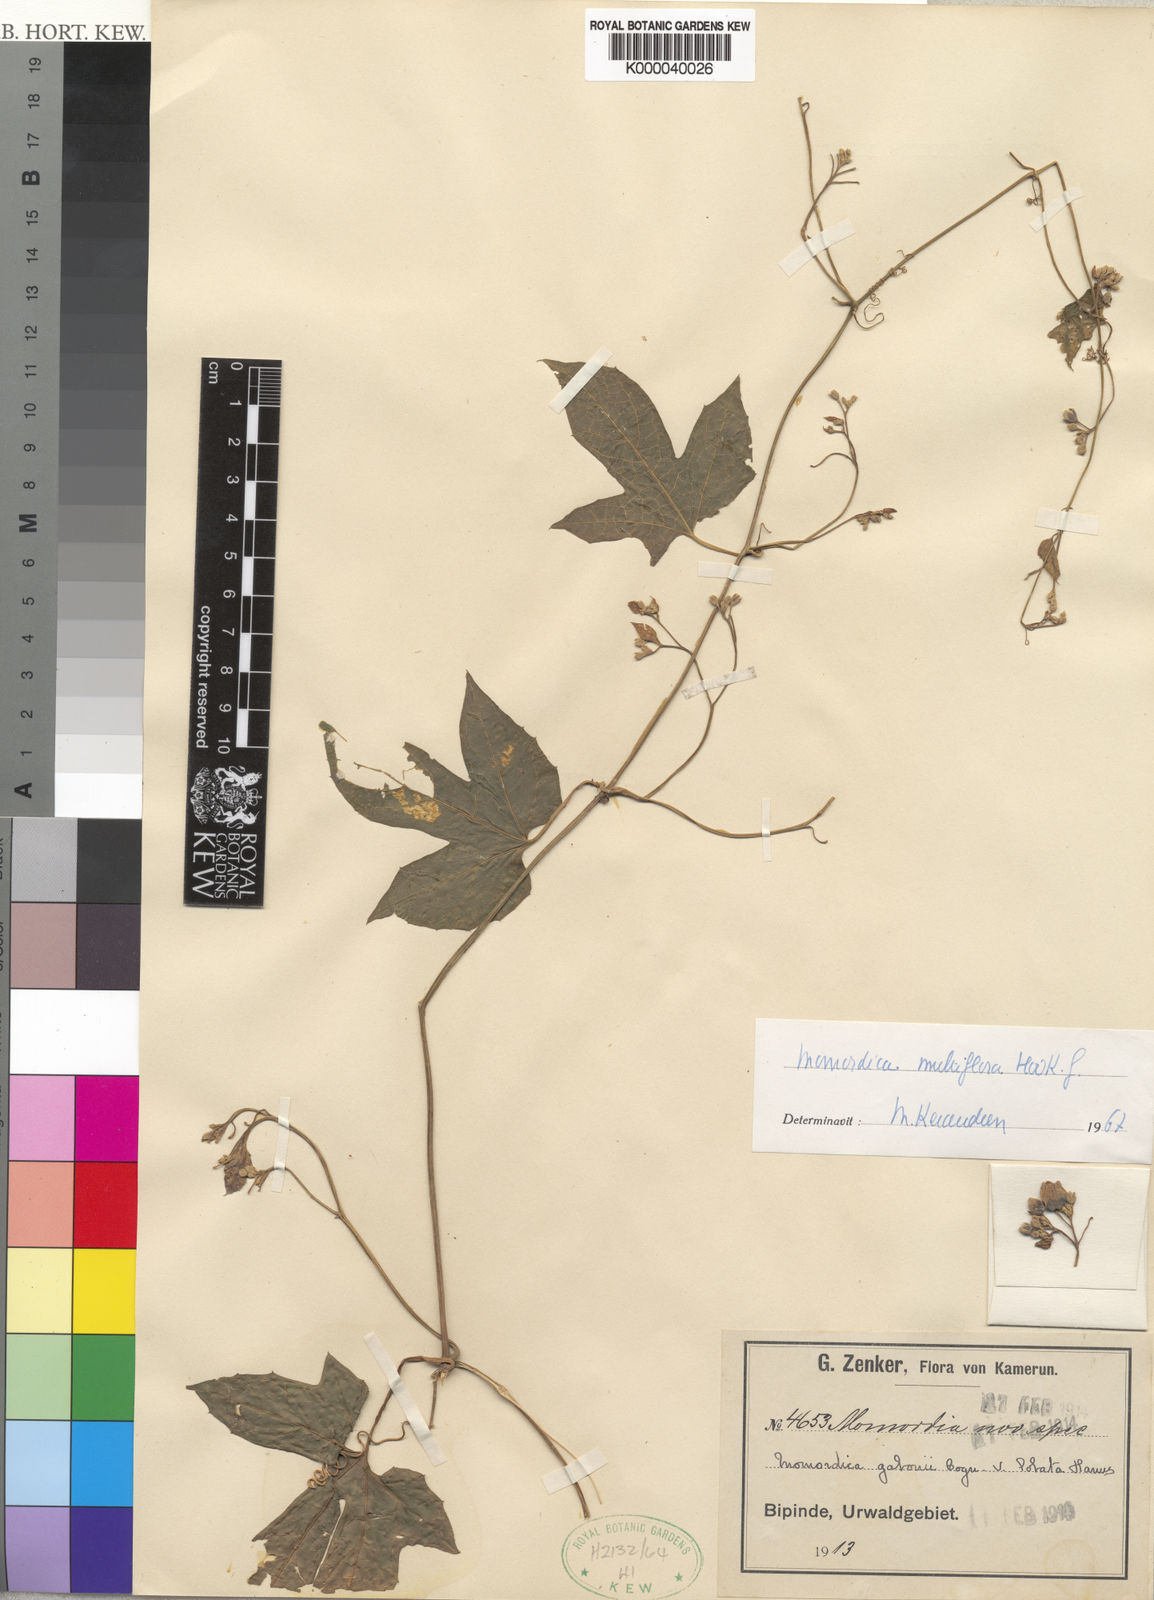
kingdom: Plantae
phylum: Tracheophyta
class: Magnoliopsida
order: Cucurbitales
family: Cucurbitaceae
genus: Momordica
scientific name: Momordica multiflora
